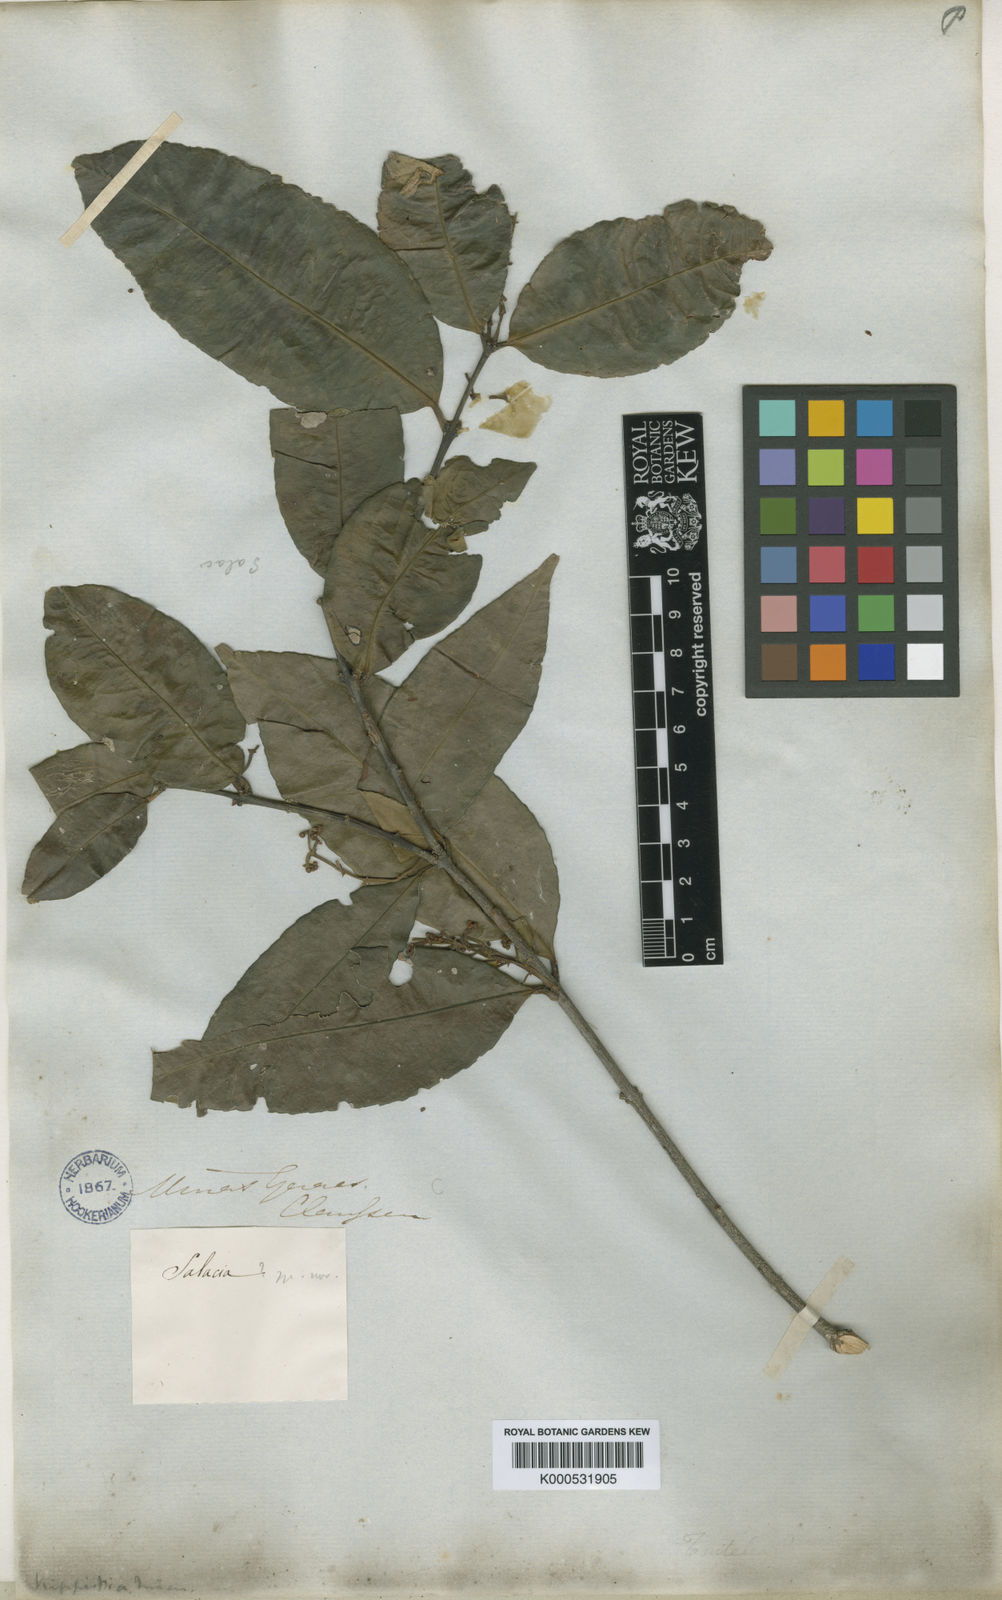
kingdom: Plantae
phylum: Tracheophyta
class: Magnoliopsida
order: Celastrales
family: Celastraceae
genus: Cheiloclinium
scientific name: Cheiloclinium cognatum
